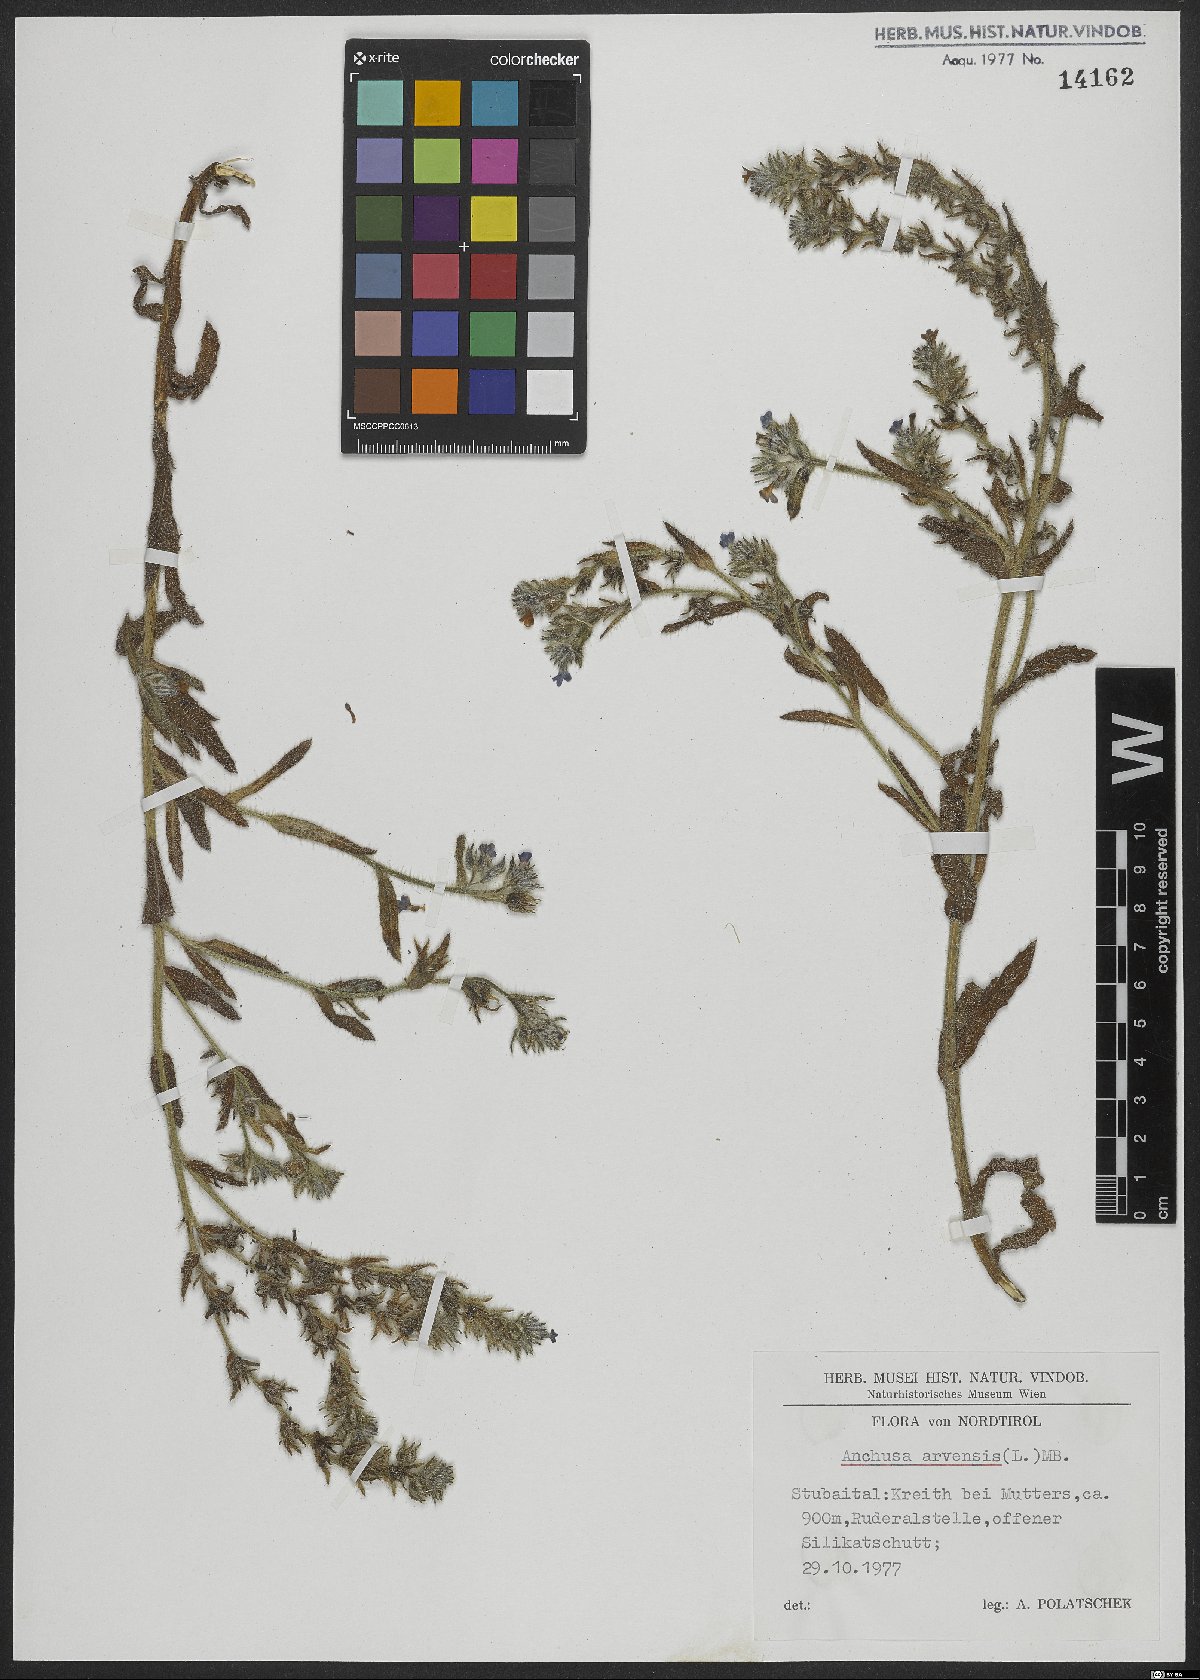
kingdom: Plantae
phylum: Tracheophyta
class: Magnoliopsida
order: Boraginales
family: Boraginaceae
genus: Lycopsis
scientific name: Lycopsis arvensis
